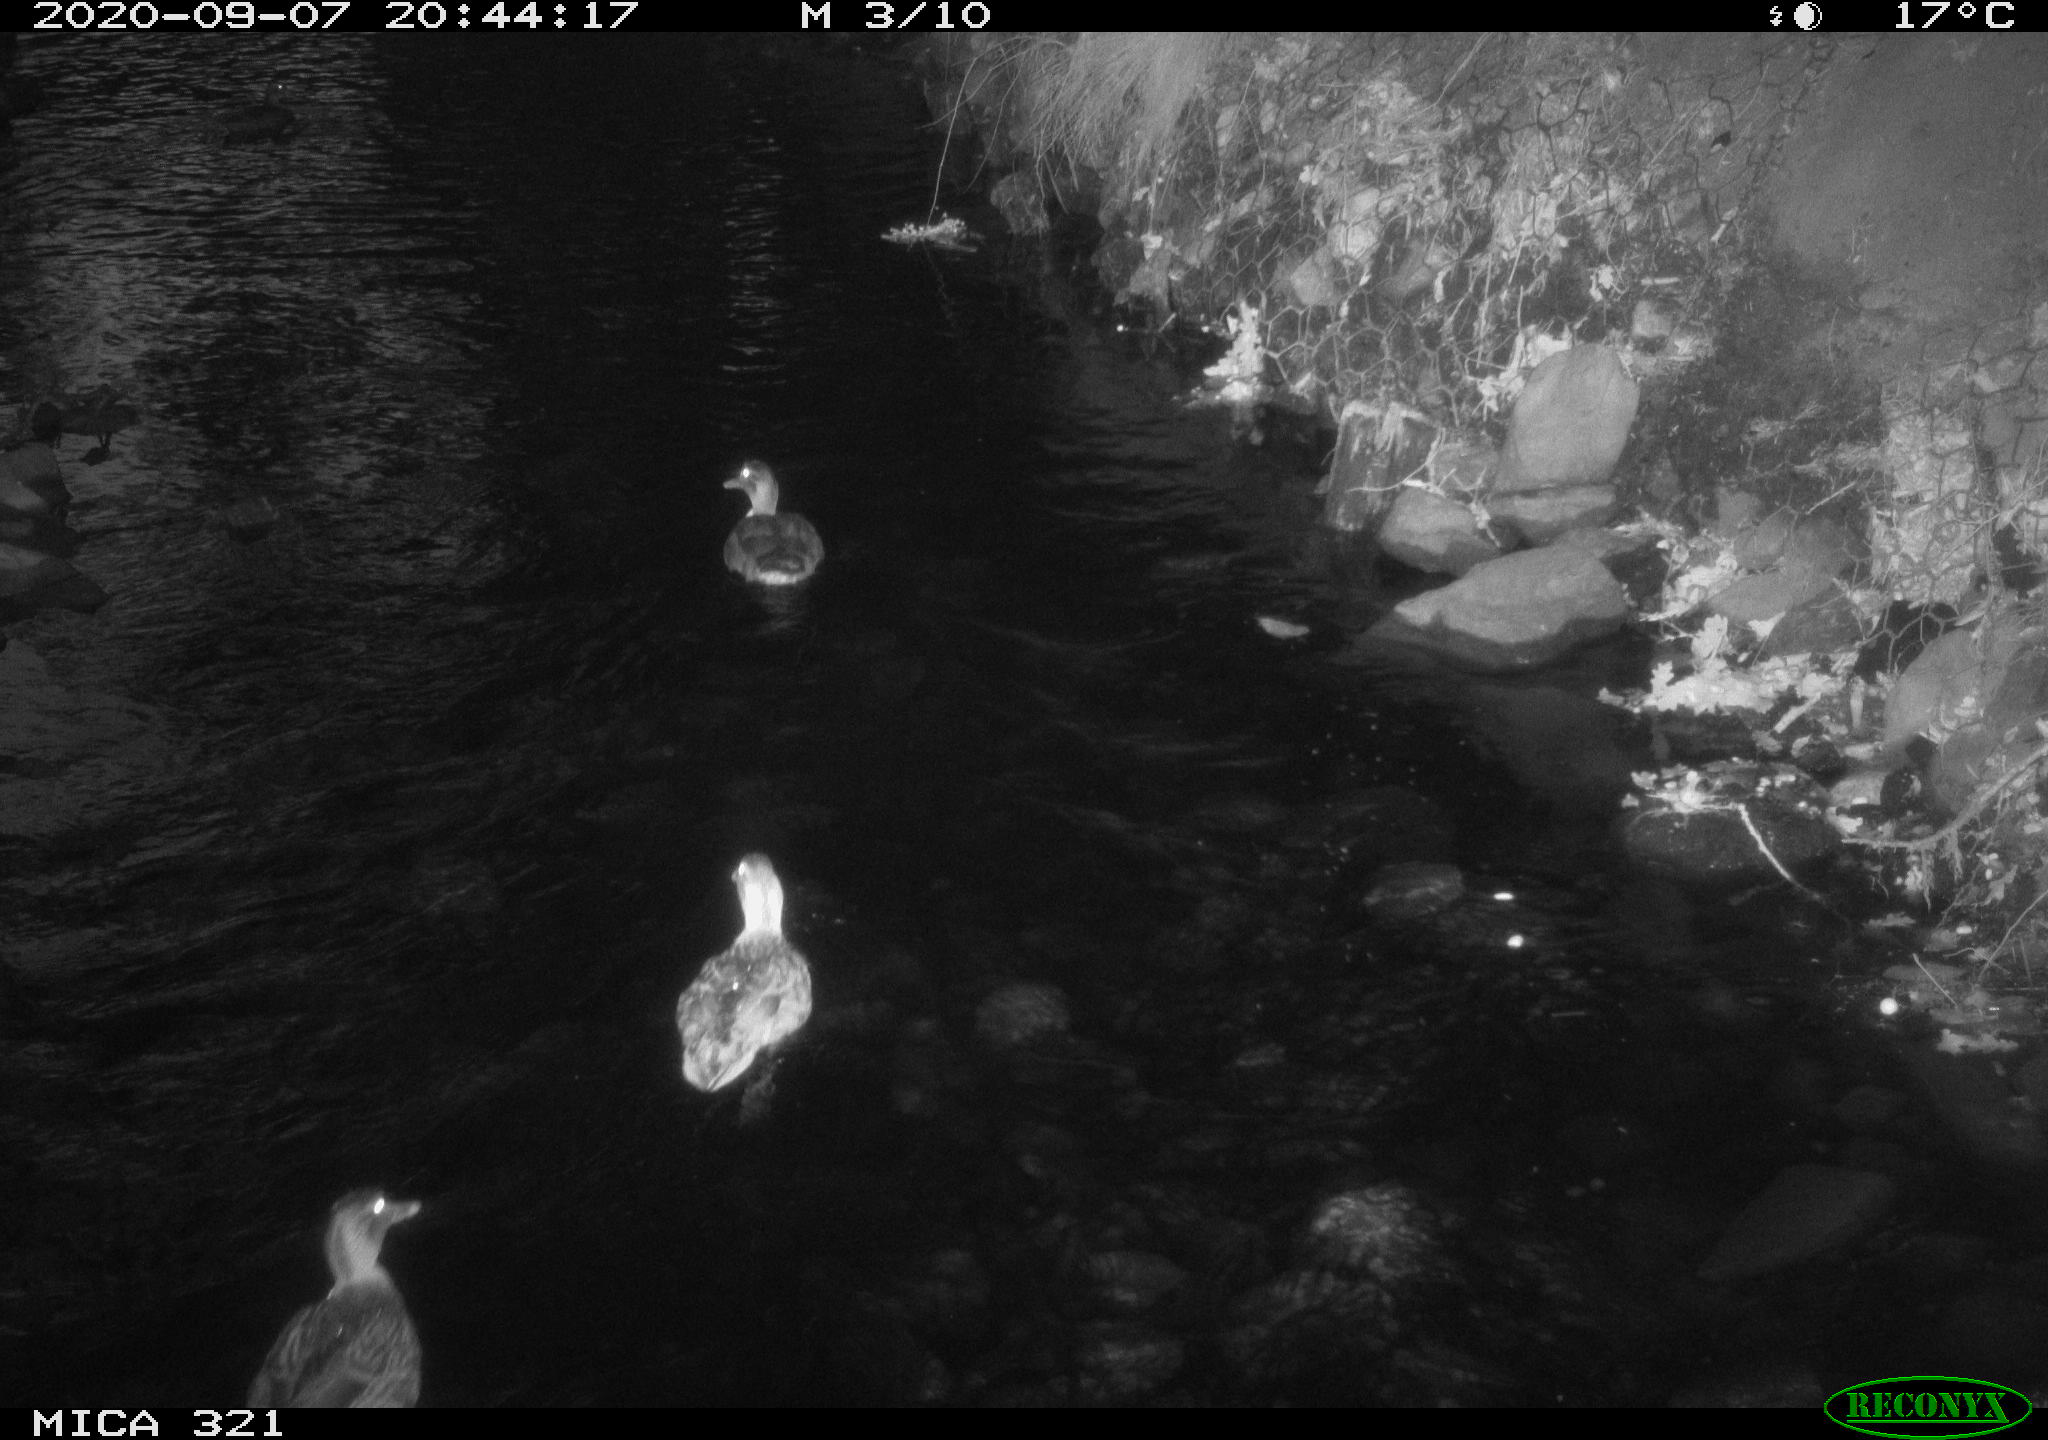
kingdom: Animalia
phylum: Chordata
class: Aves
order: Anseriformes
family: Anatidae
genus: Anas
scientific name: Anas platyrhynchos
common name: Mallard
